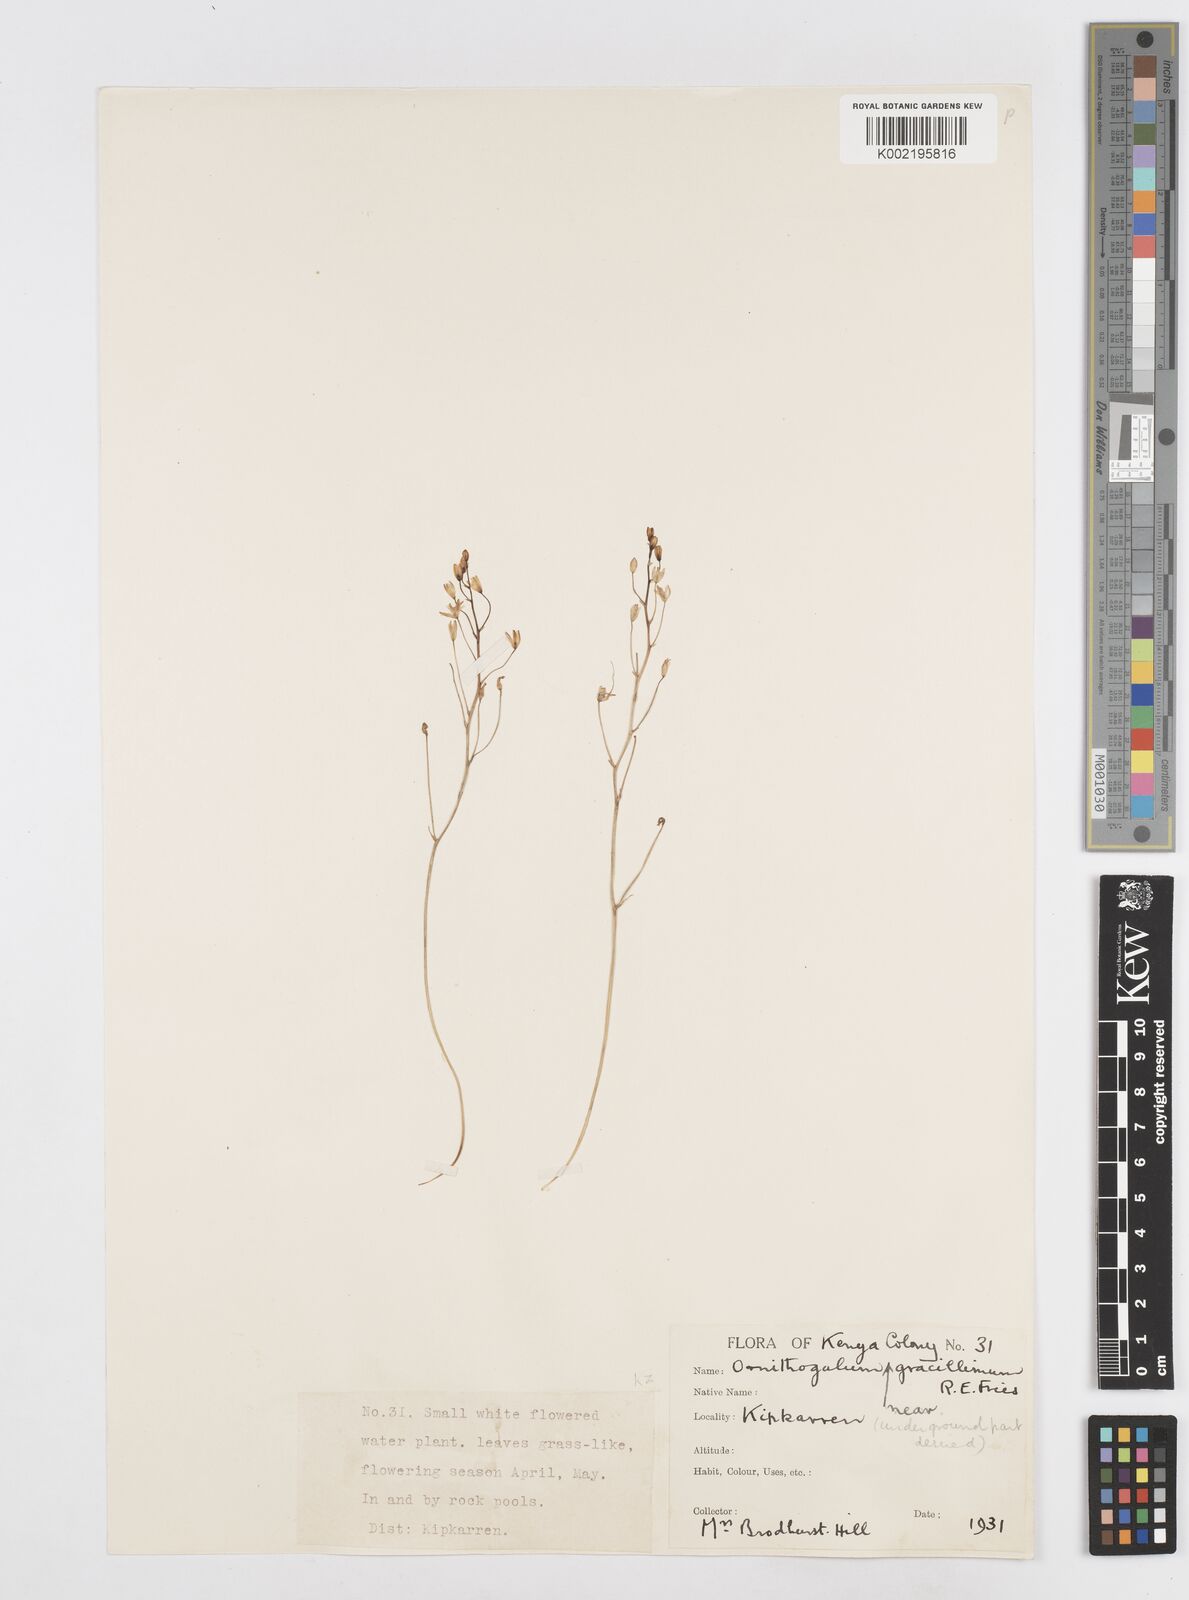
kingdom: Plantae
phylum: Tracheophyta
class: Liliopsida
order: Asparagales
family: Asparagaceae
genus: Ornithogalum
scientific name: Ornithogalum gracillimum
